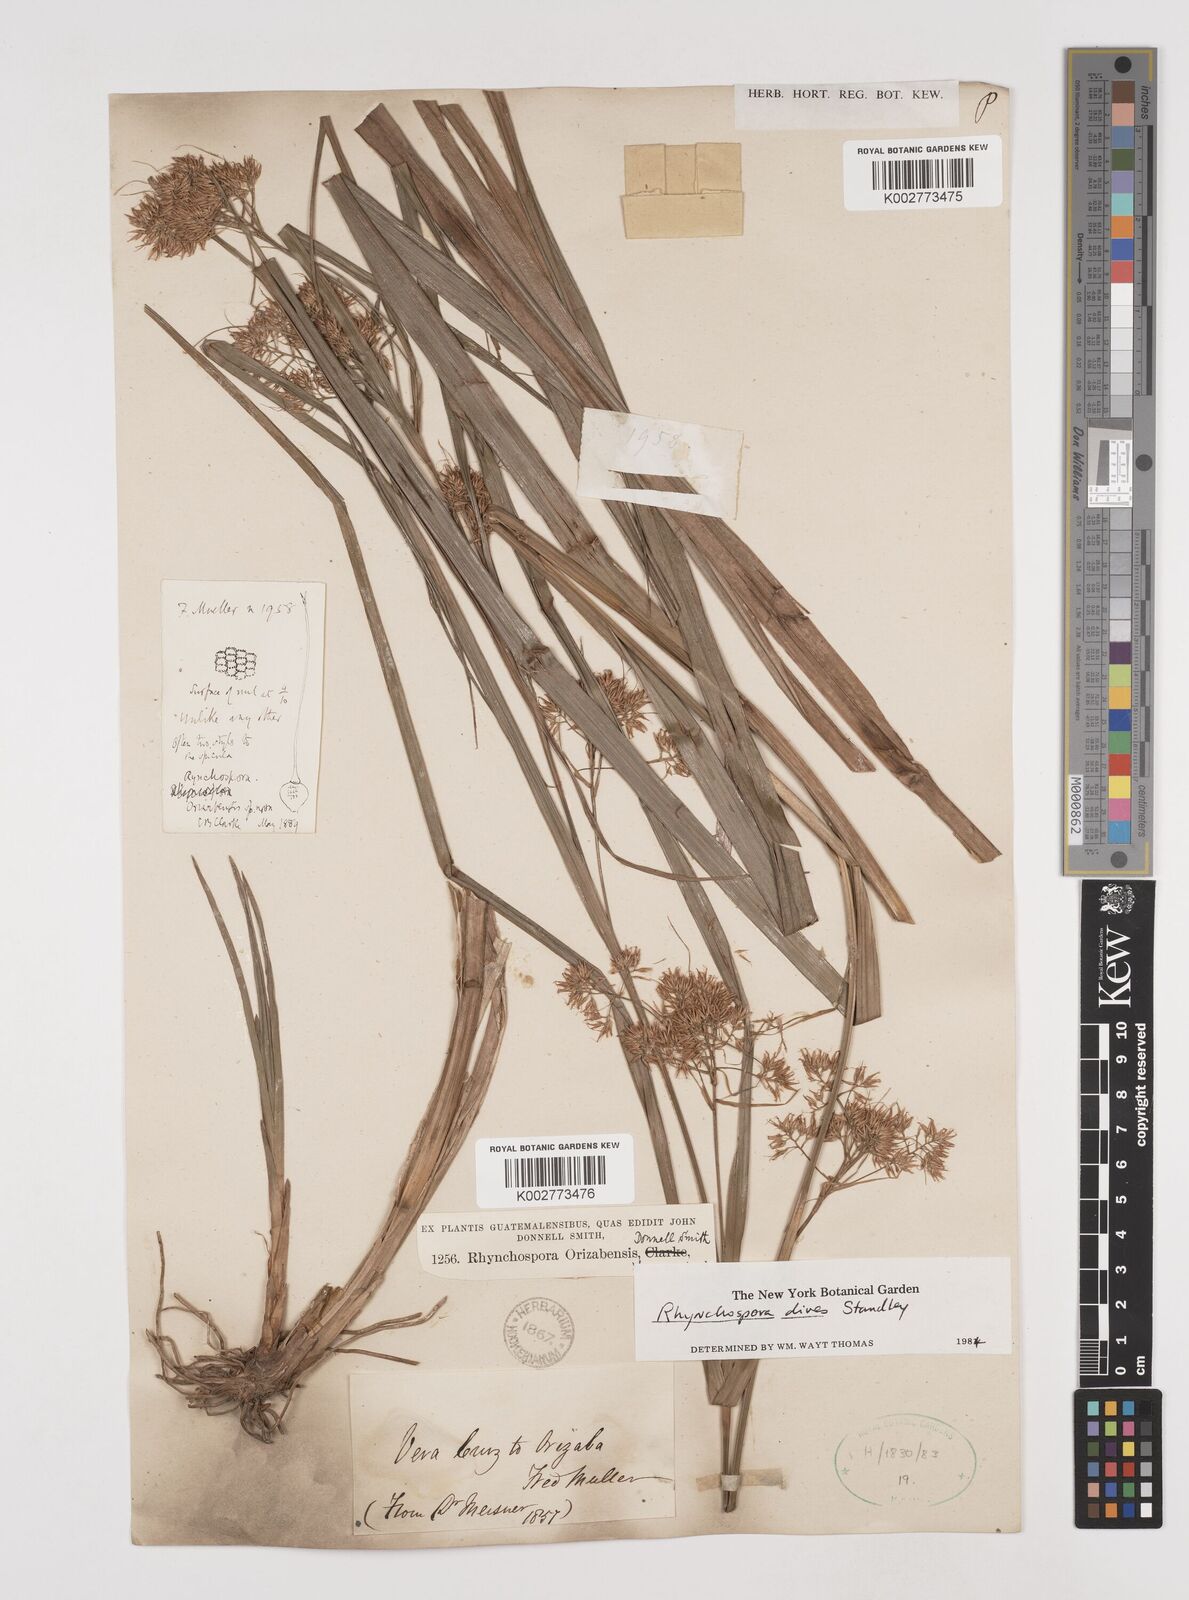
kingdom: Plantae
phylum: Tracheophyta
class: Liliopsida
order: Poales
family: Cyperaceae
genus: Rhynchospora
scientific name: Rhynchospora dives
